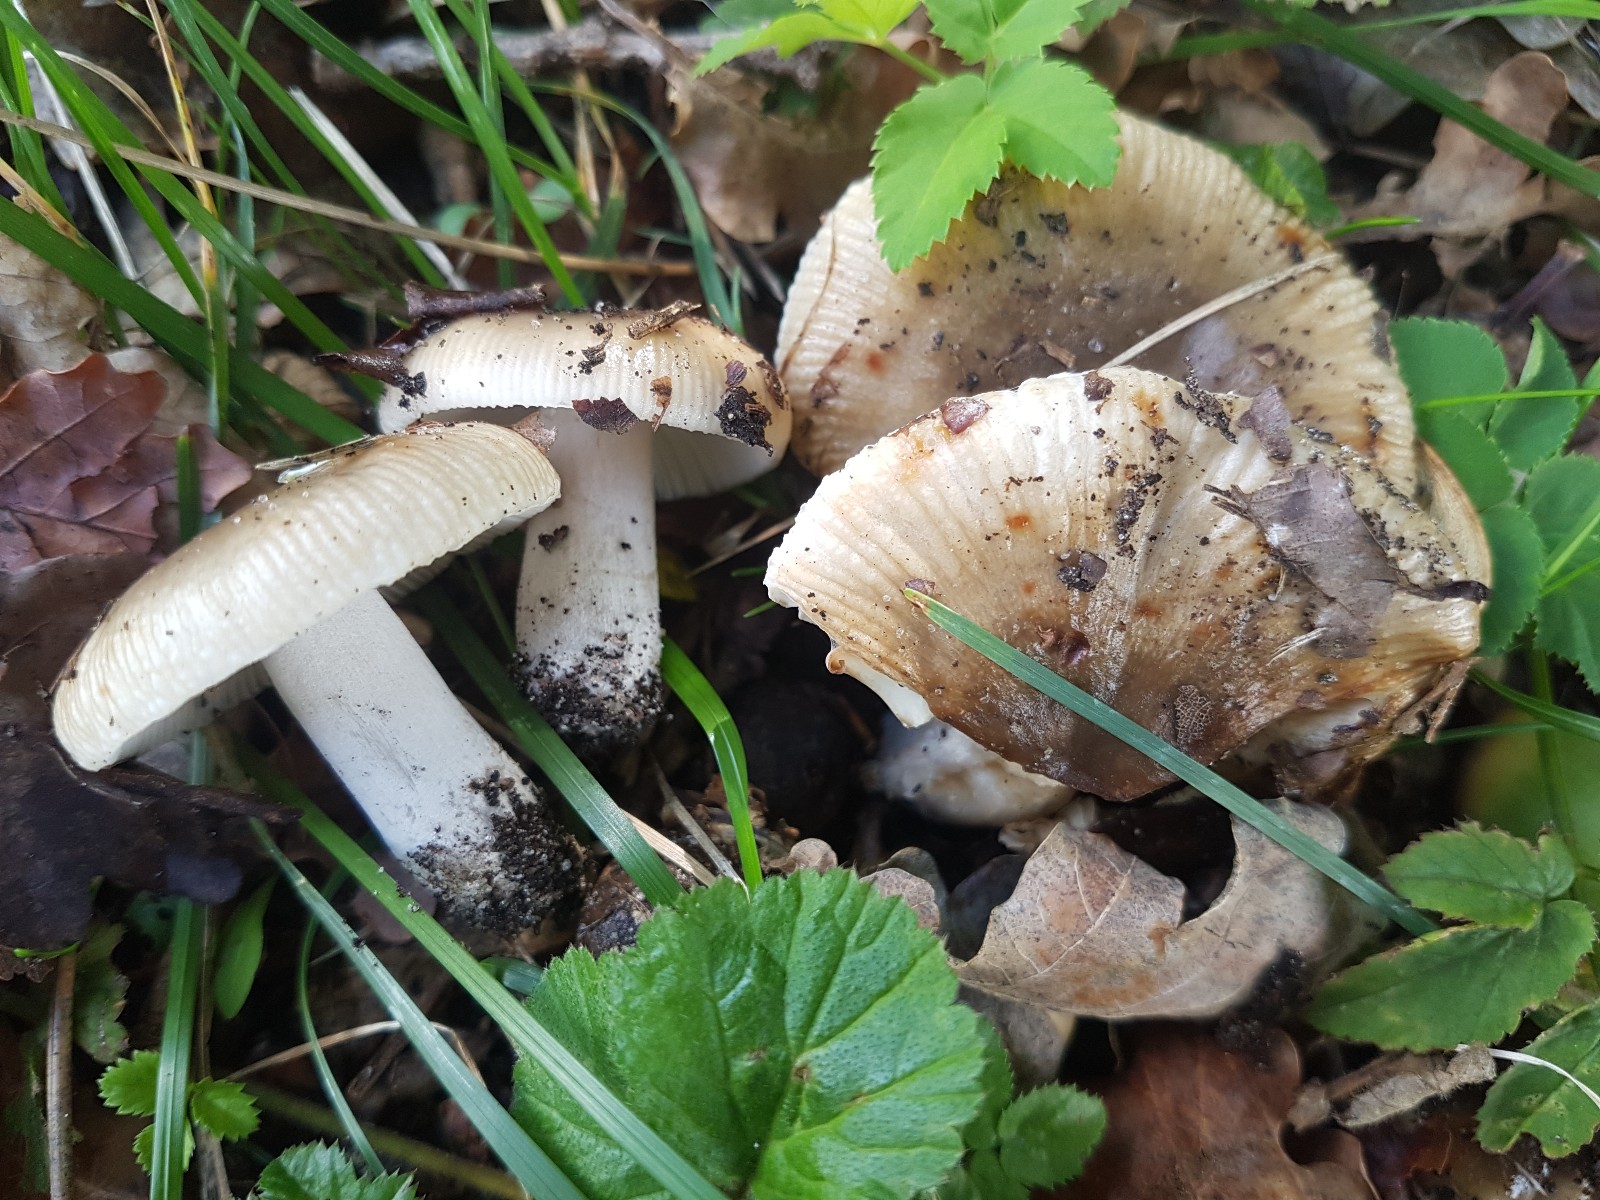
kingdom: Fungi
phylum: Basidiomycota
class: Agaricomycetes
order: Russulales
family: Russulaceae
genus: Russula
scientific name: Russula recondita
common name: mild kam-skørhat
